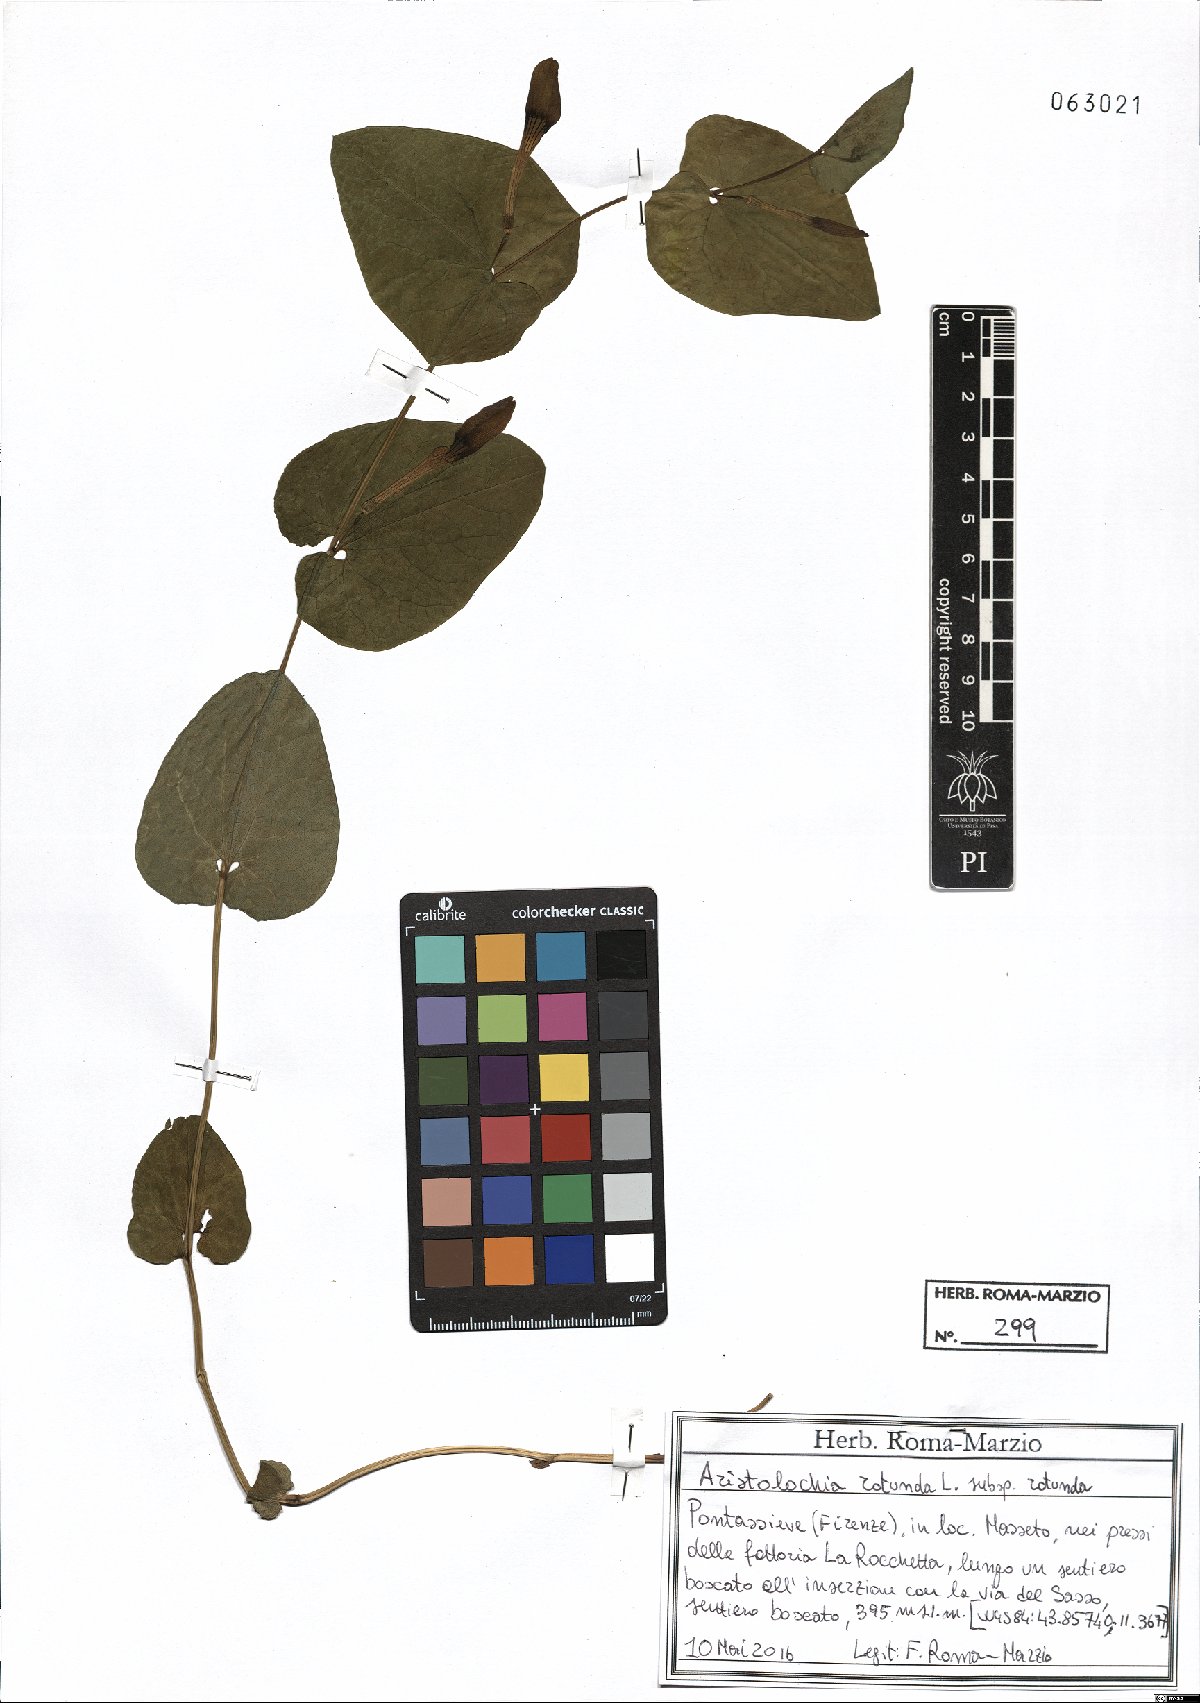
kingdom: Plantae
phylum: Tracheophyta
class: Magnoliopsida
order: Piperales
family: Aristolochiaceae
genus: Aristolochia
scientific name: Aristolochia rotunda
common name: Smearwort
